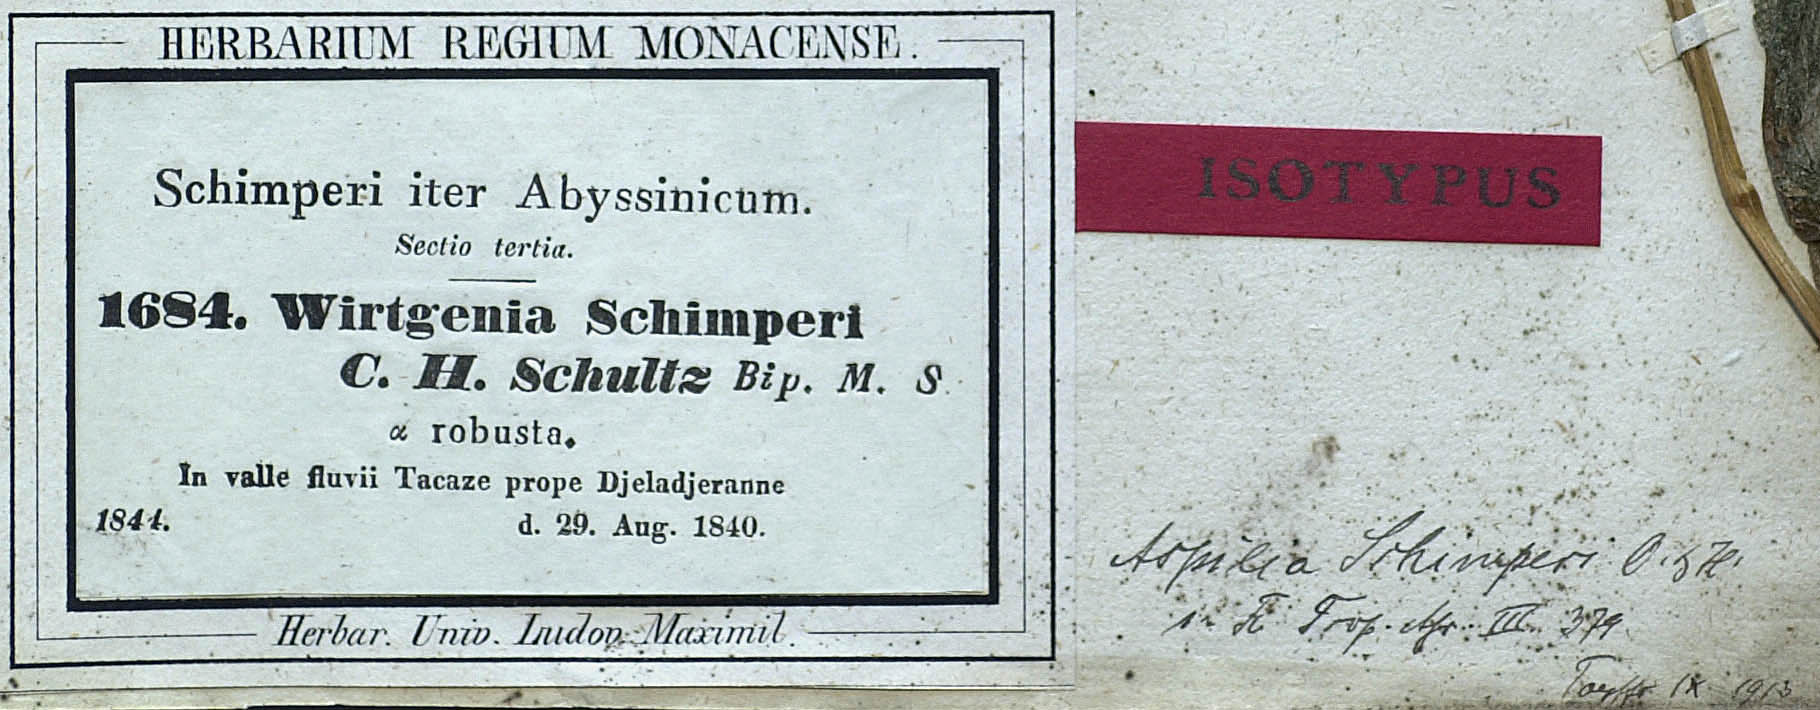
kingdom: Plantae
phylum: Tracheophyta
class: Magnoliopsida
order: Asterales
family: Asteraceae
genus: Aspilia
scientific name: Aspilia ciliata
